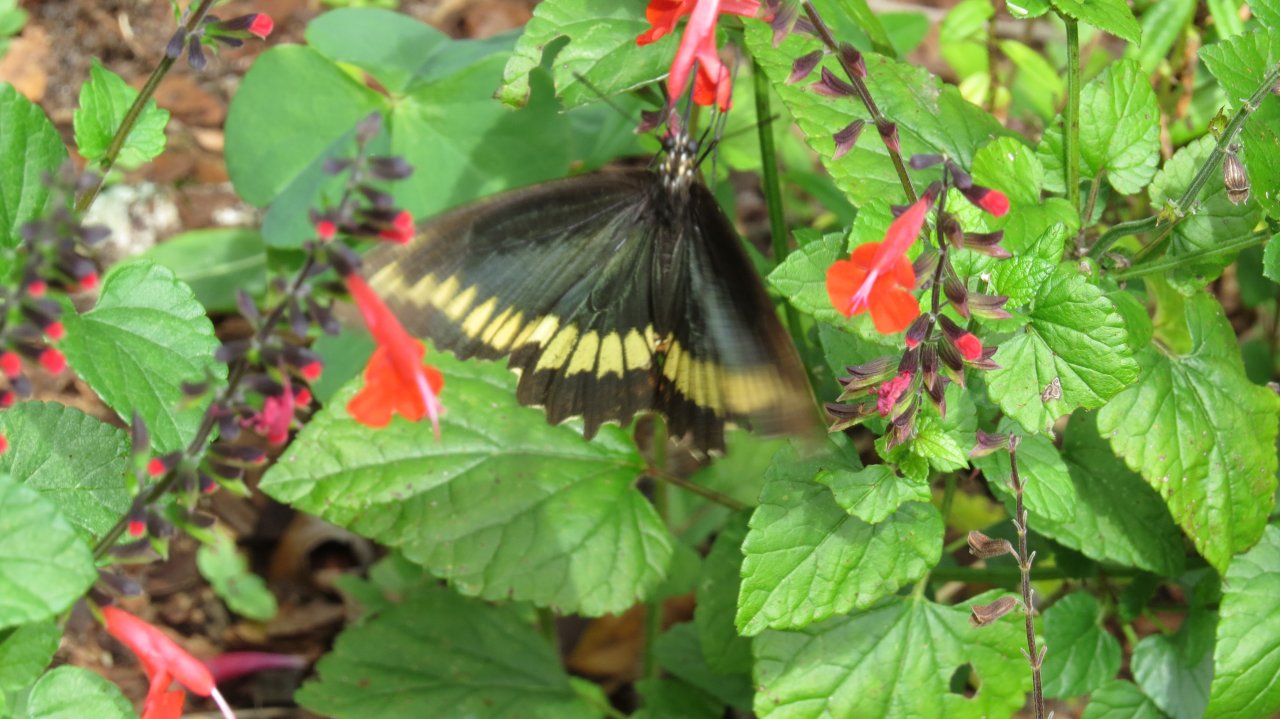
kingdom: Animalia
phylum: Arthropoda
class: Insecta
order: Lepidoptera
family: Papilionidae
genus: Battus
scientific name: Battus polydamas
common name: Polydamas Swallowtail
